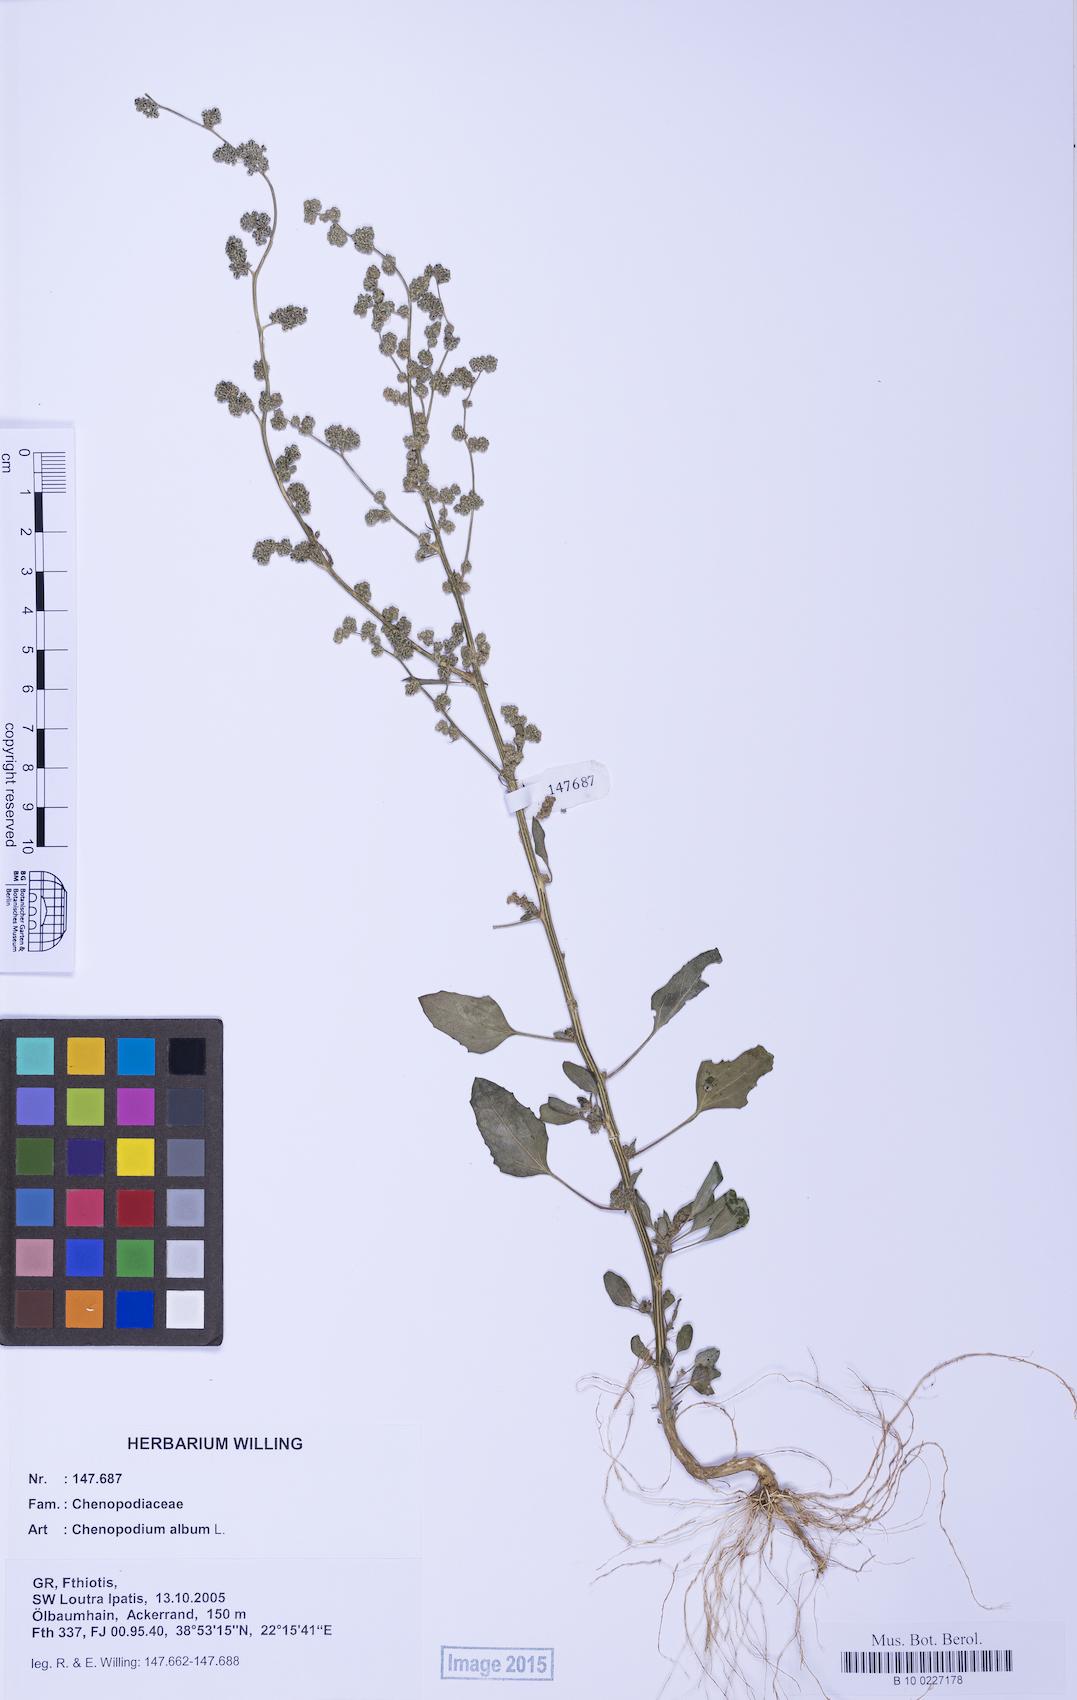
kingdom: Plantae
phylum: Tracheophyta
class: Magnoliopsida
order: Caryophyllales
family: Amaranthaceae
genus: Chenopodium
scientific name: Chenopodium album
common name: Fat-hen
